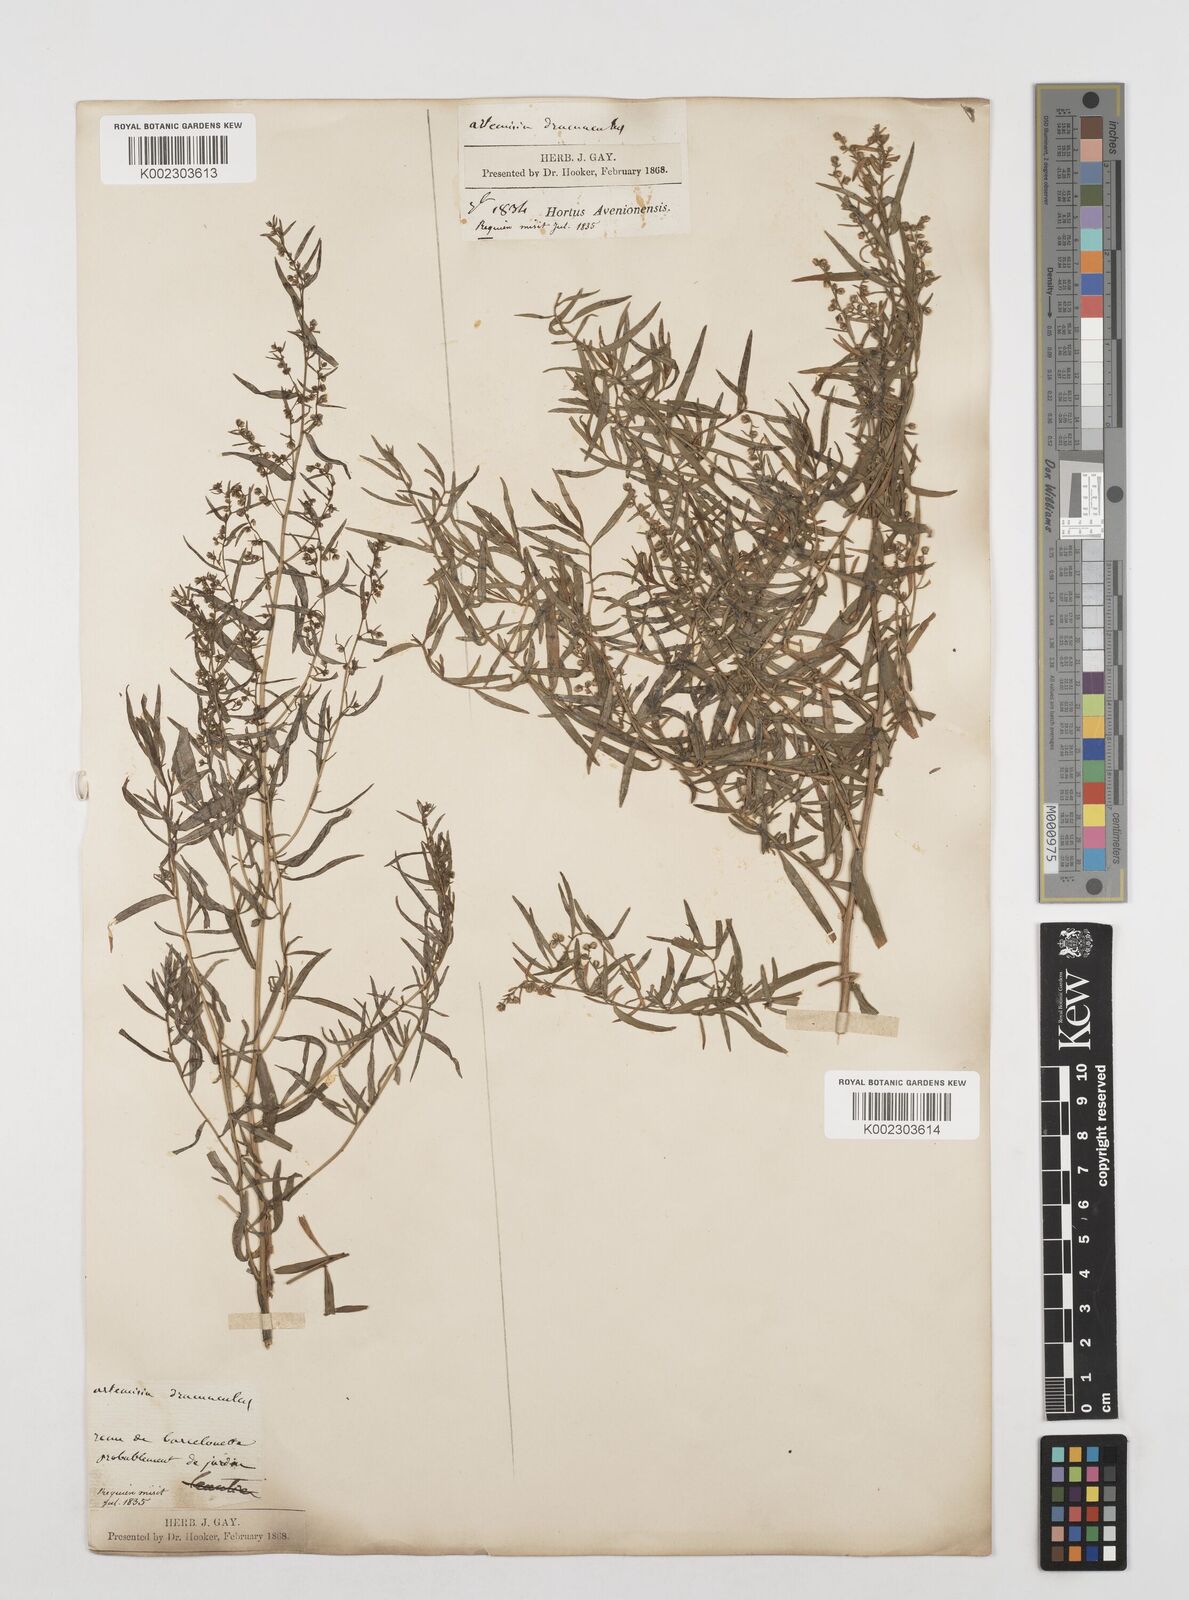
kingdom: Plantae
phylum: Tracheophyta
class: Magnoliopsida
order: Asterales
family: Asteraceae
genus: Artemisia
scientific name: Artemisia dracunculus
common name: Tarragon
